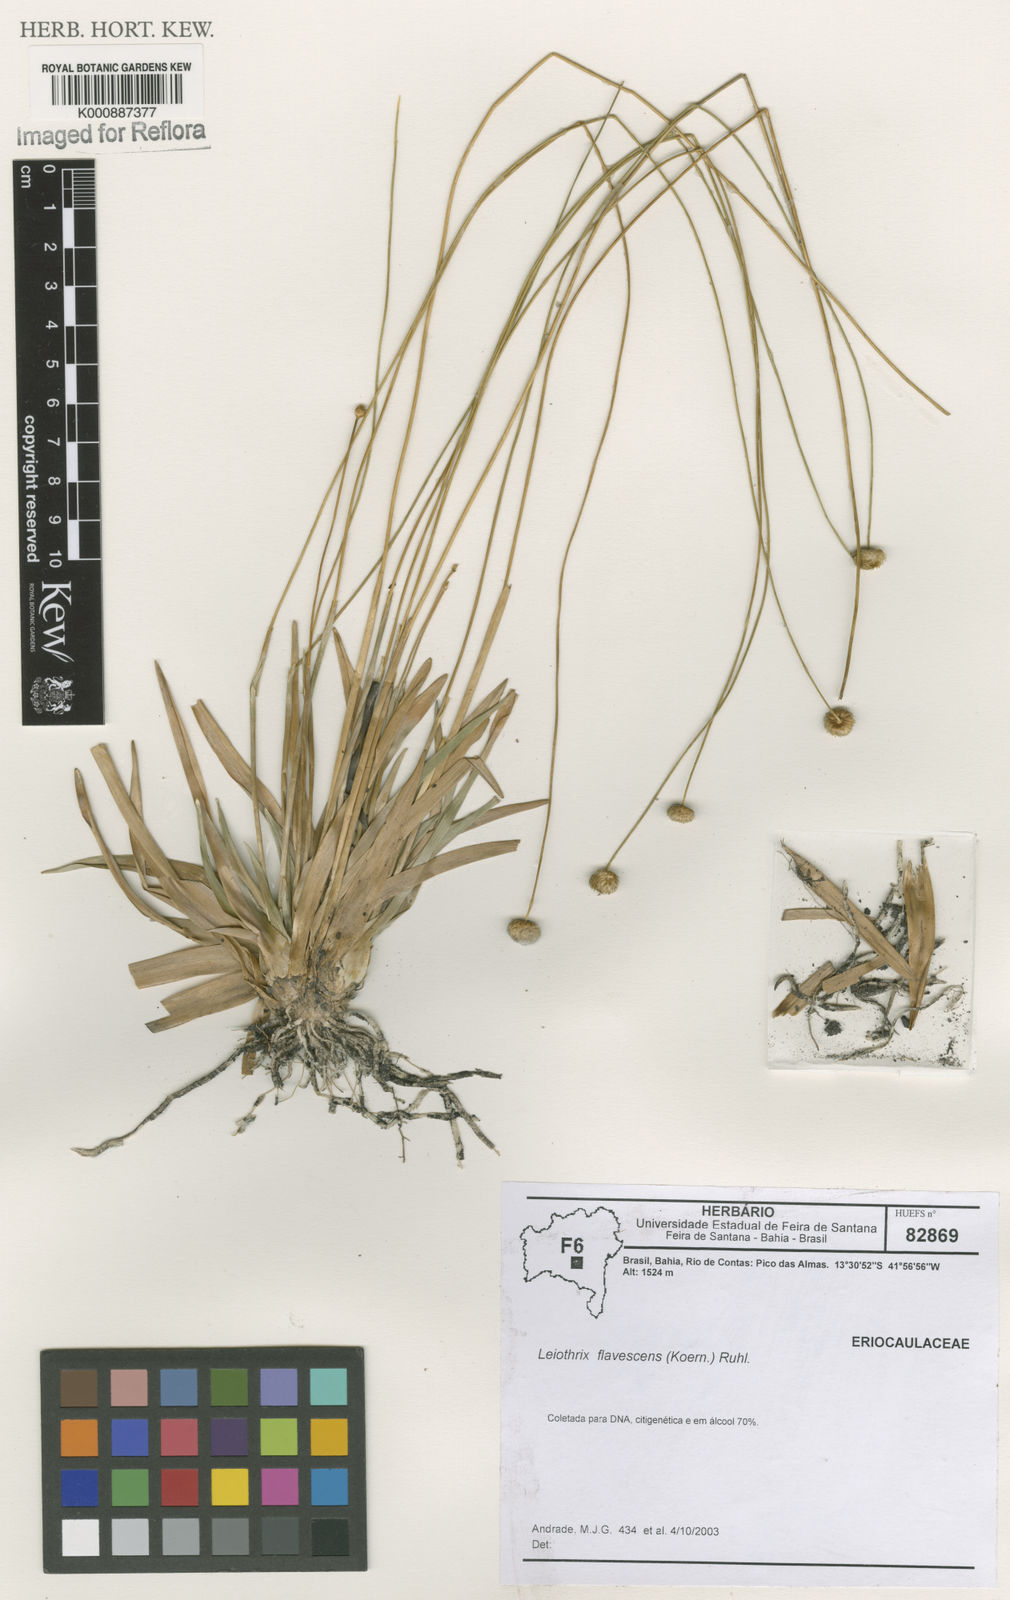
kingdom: Plantae
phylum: Tracheophyta
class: Liliopsida
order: Poales
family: Eriocaulaceae
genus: Leiothrix
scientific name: Leiothrix flavescens
